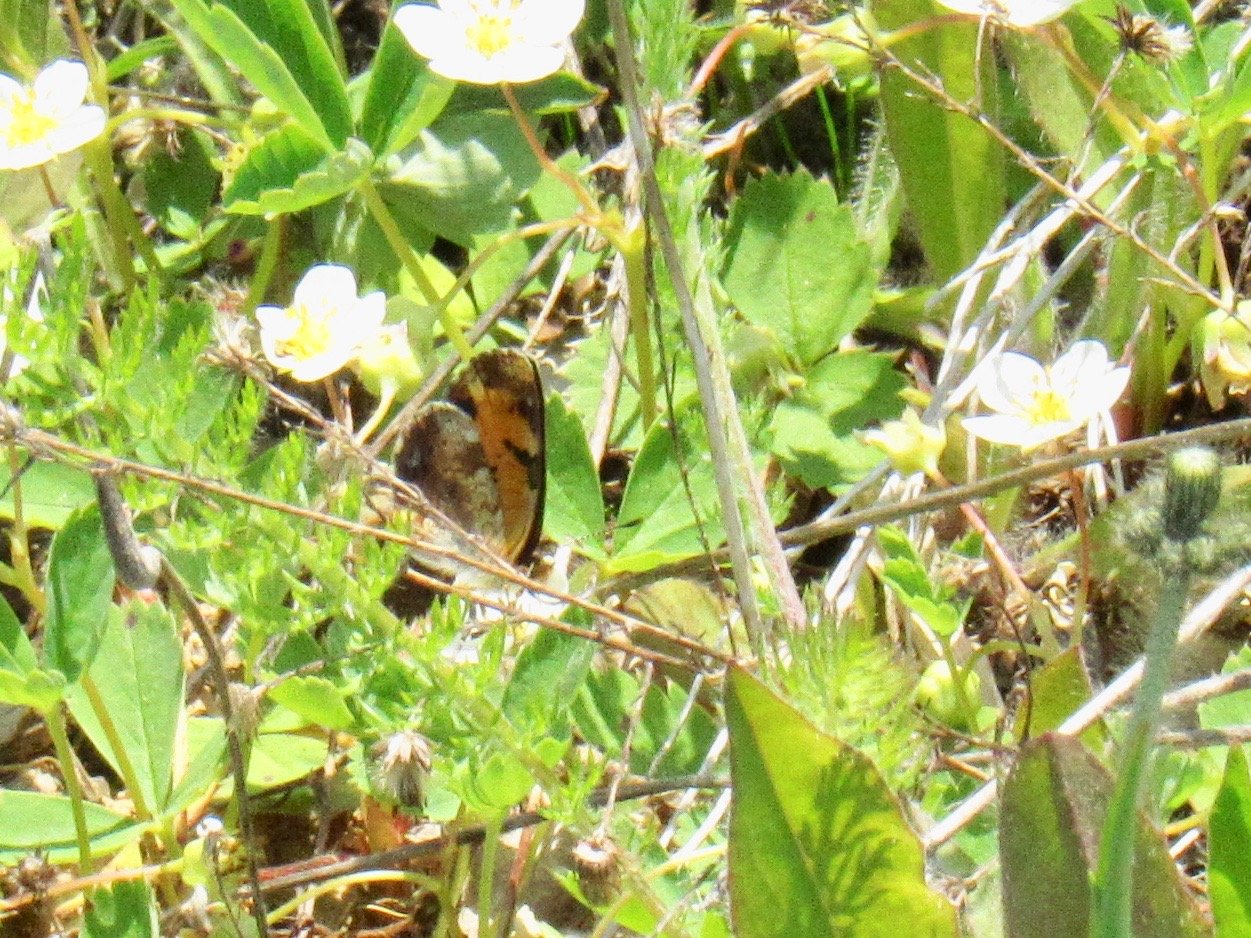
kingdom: Animalia
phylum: Arthropoda
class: Insecta
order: Lepidoptera
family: Nymphalidae
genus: Phyciodes
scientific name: Phyciodes
